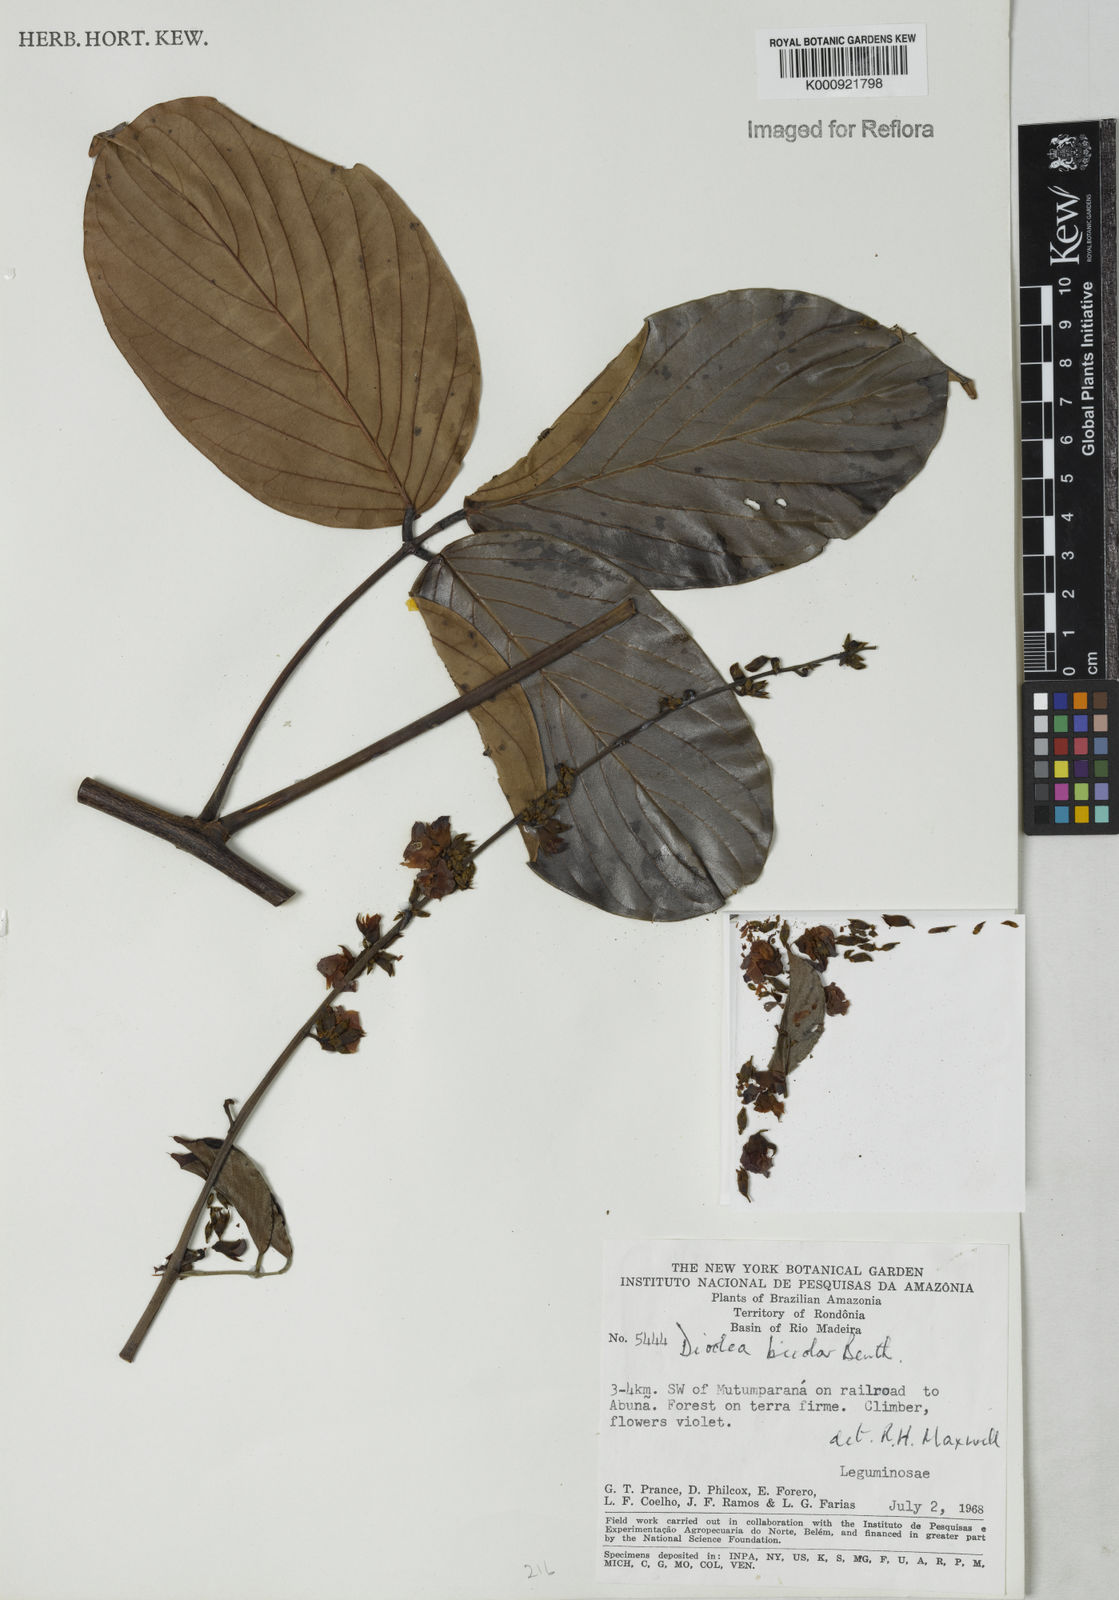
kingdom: Plantae
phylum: Tracheophyta
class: Magnoliopsida
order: Fabales
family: Fabaceae
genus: Macropsychanthus
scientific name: Macropsychanthus bicolor
